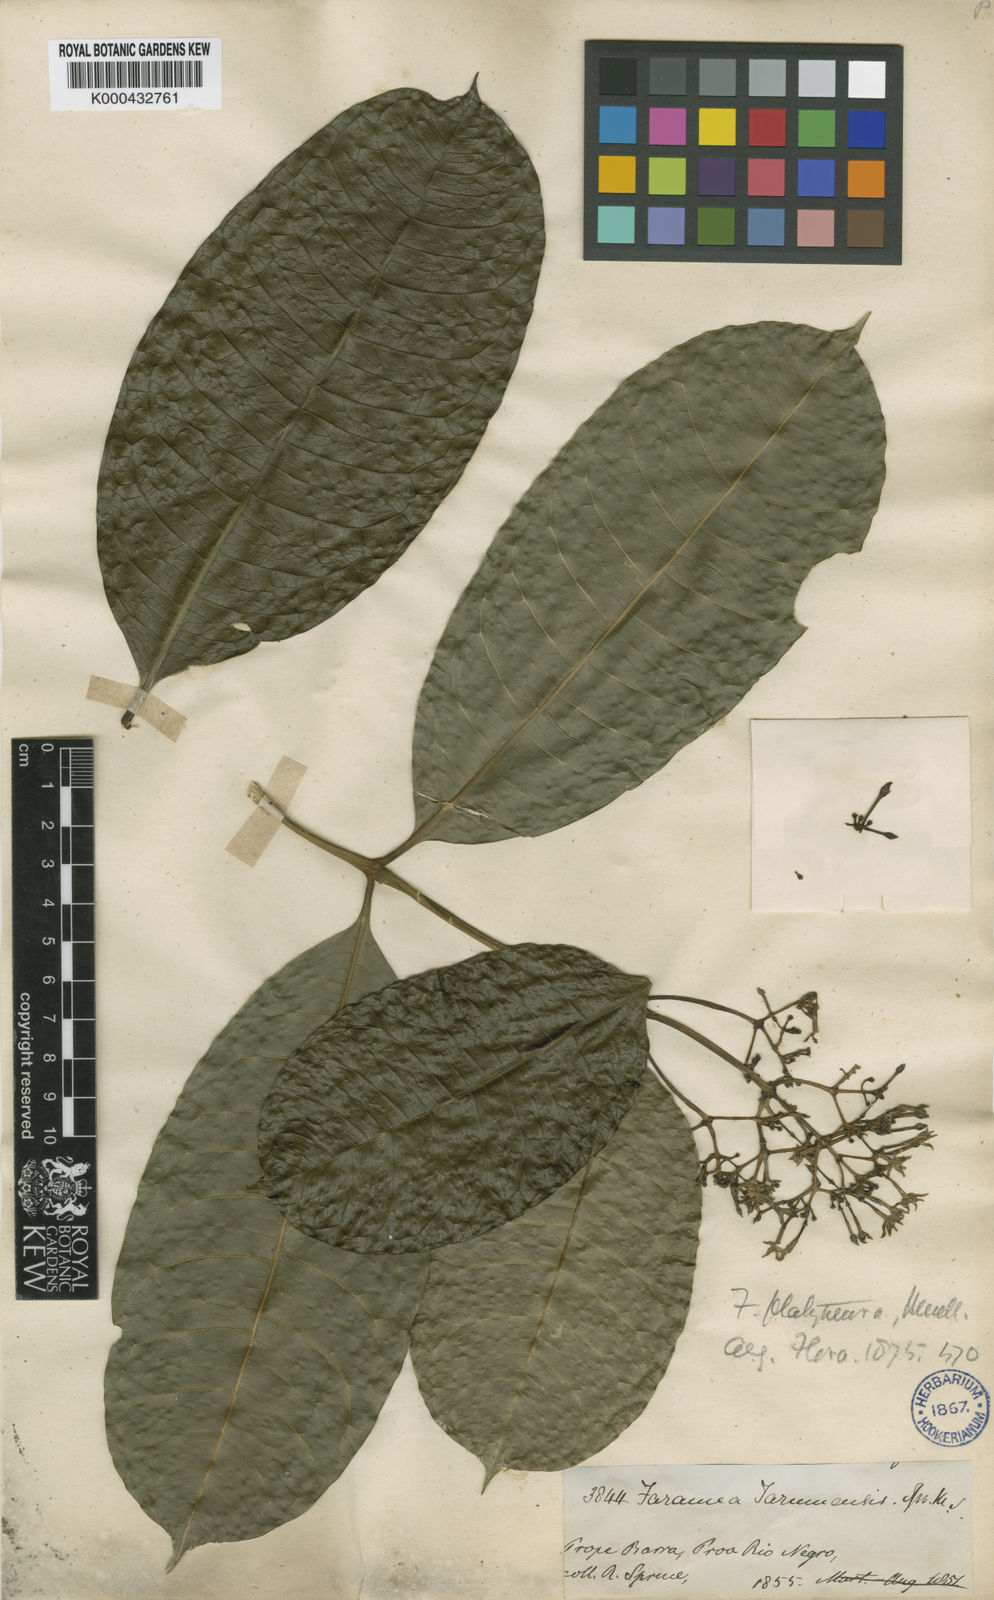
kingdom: Plantae
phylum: Tracheophyta
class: Magnoliopsida
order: Gentianales
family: Rubiaceae
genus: Faramea
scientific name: Faramea
